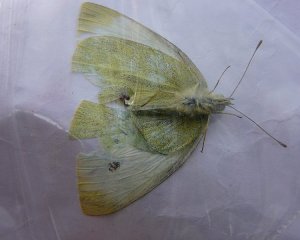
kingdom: Animalia
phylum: Arthropoda
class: Insecta
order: Lepidoptera
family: Pieridae
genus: Pieris
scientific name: Pieris rapae
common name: Cabbage White
